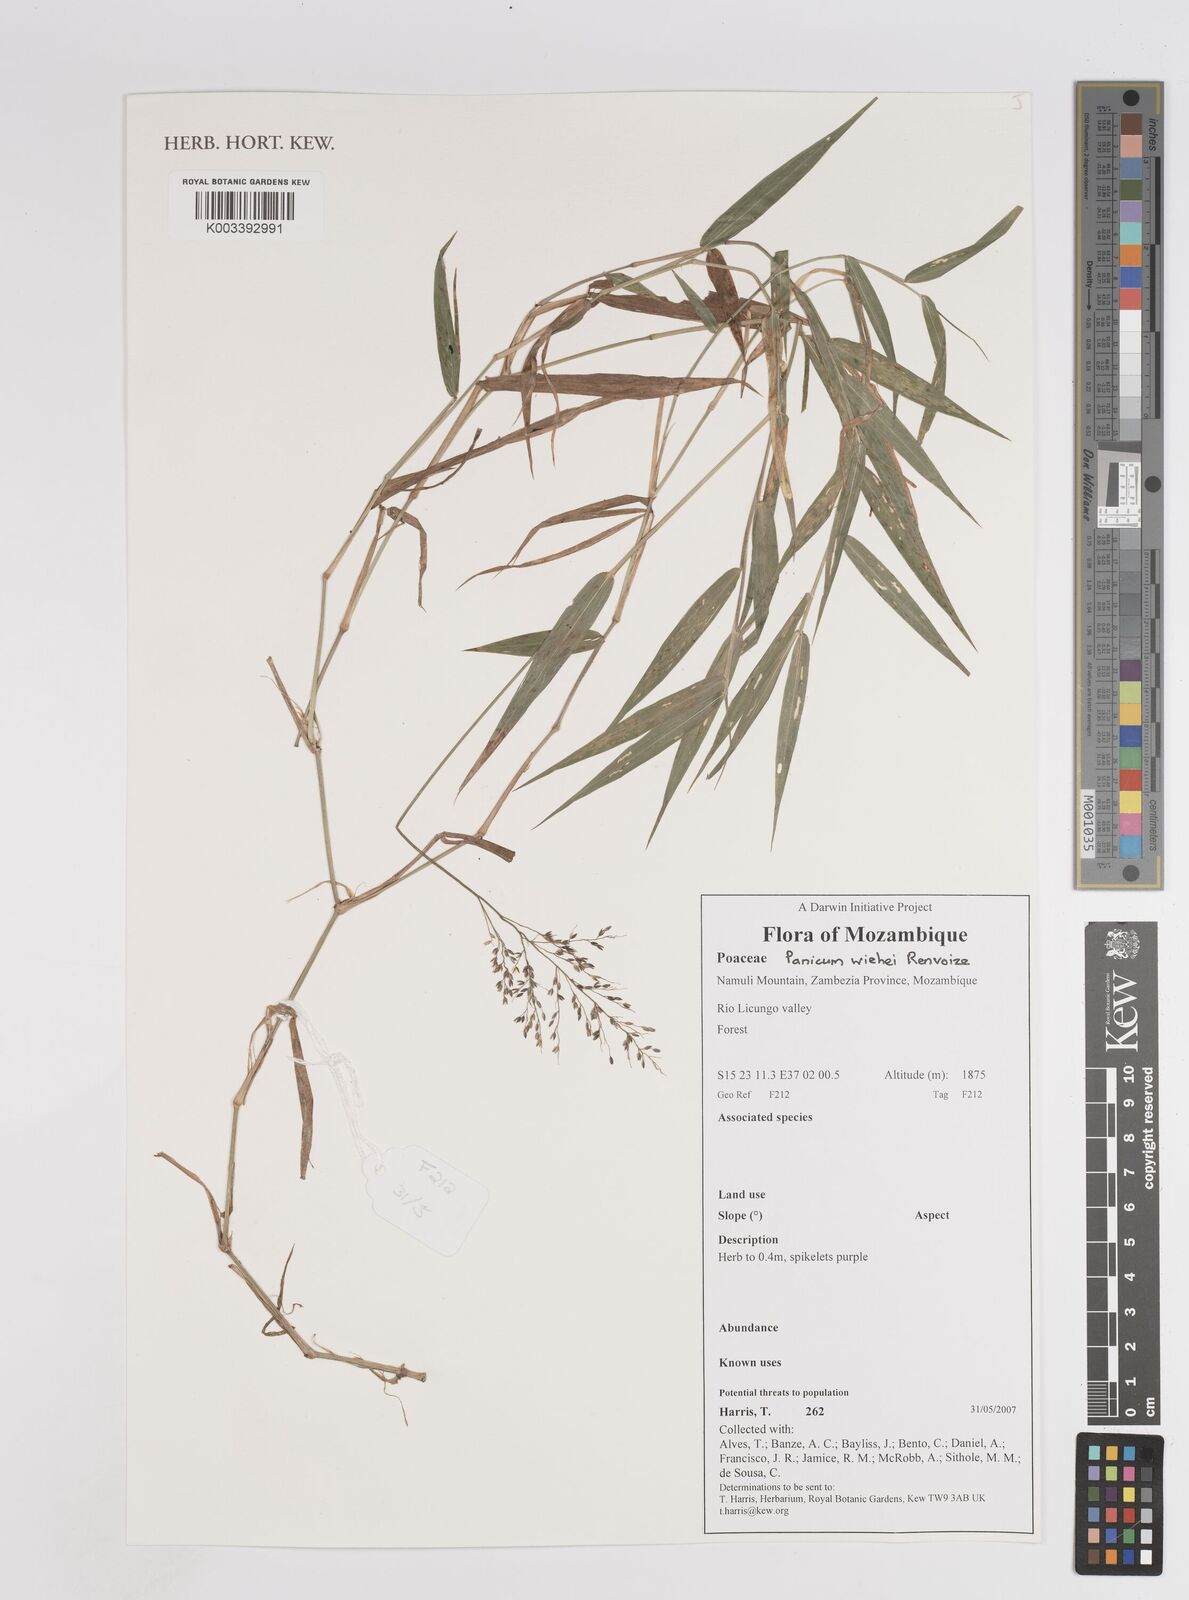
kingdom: Plantae
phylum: Tracheophyta
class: Liliopsida
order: Poales
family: Poaceae
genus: Panicum
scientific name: Panicum wiehei
